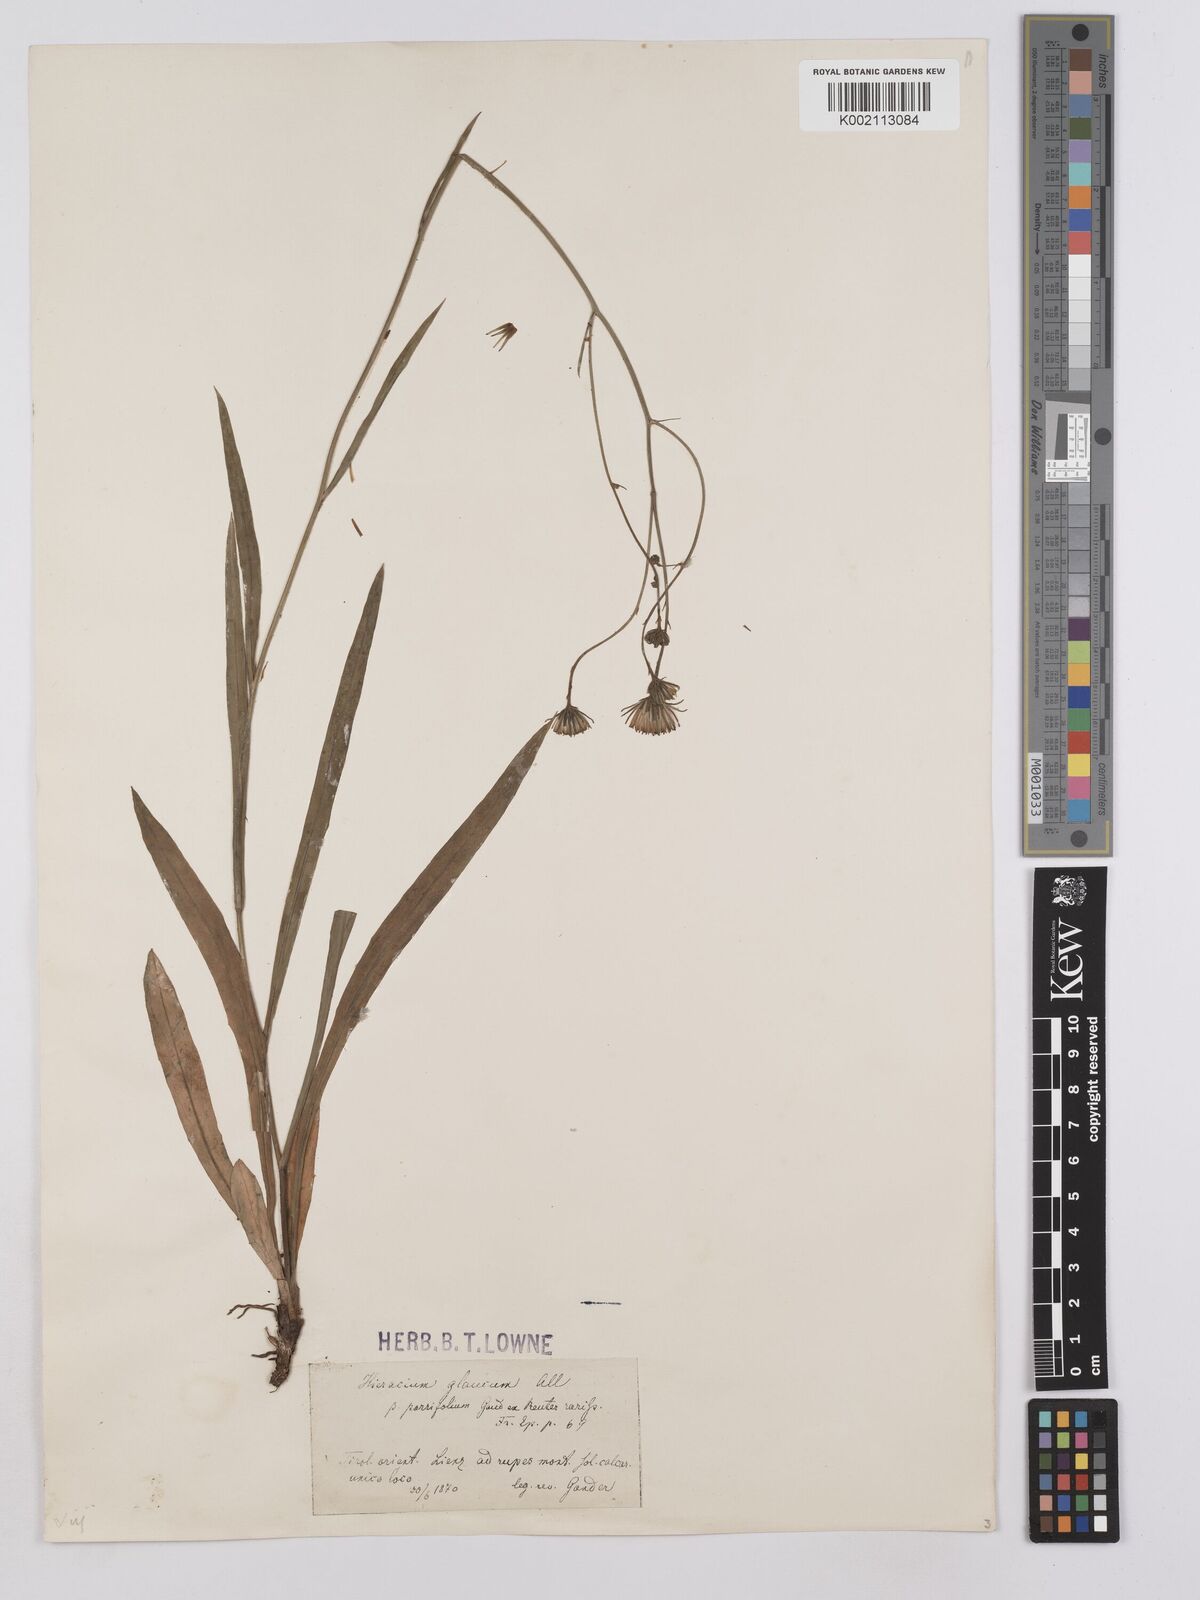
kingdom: Plantae
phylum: Tracheophyta
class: Magnoliopsida
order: Asterales
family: Asteraceae
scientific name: Asteraceae
